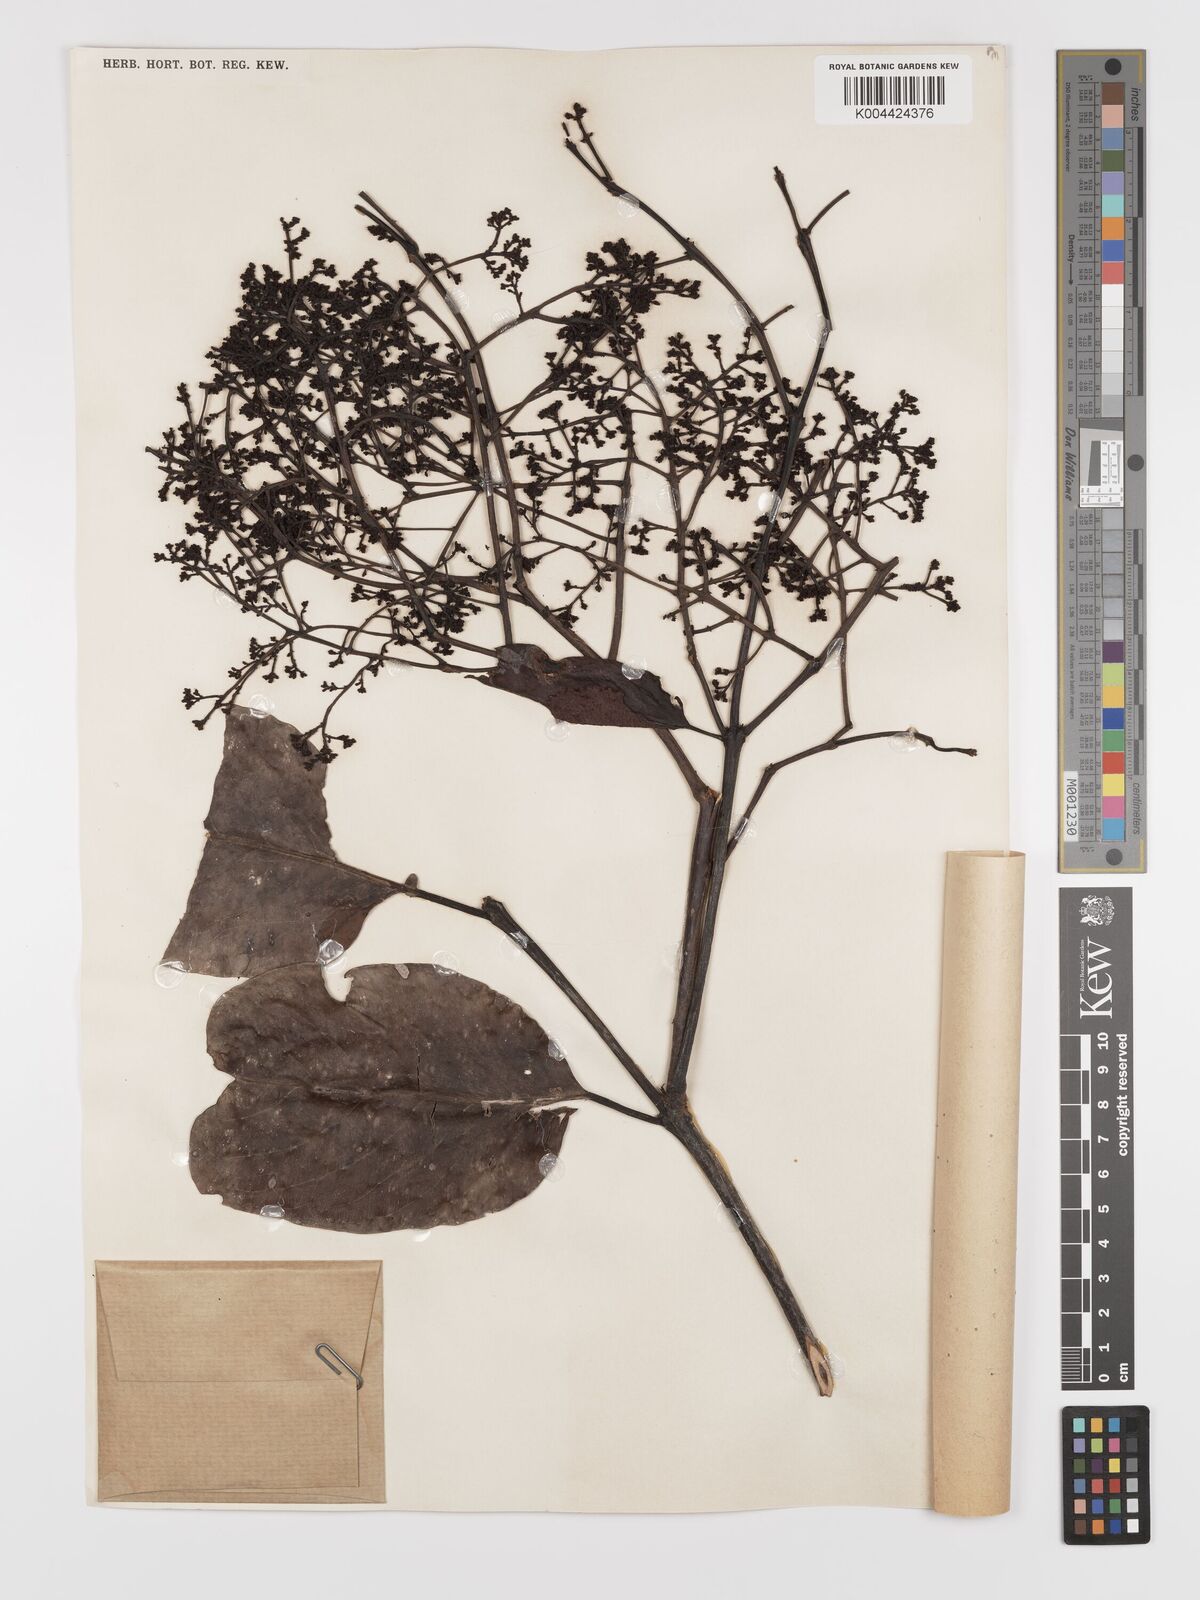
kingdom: Plantae
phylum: Tracheophyta
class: Magnoliopsida
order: Celastrales
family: Celastraceae
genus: Lophopetalum
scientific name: Lophopetalum multinervium
